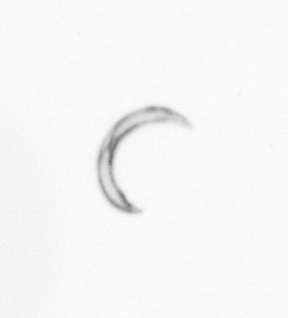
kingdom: Chromista
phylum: Ochrophyta
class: Bacillariophyceae
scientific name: Bacillariophyceae
